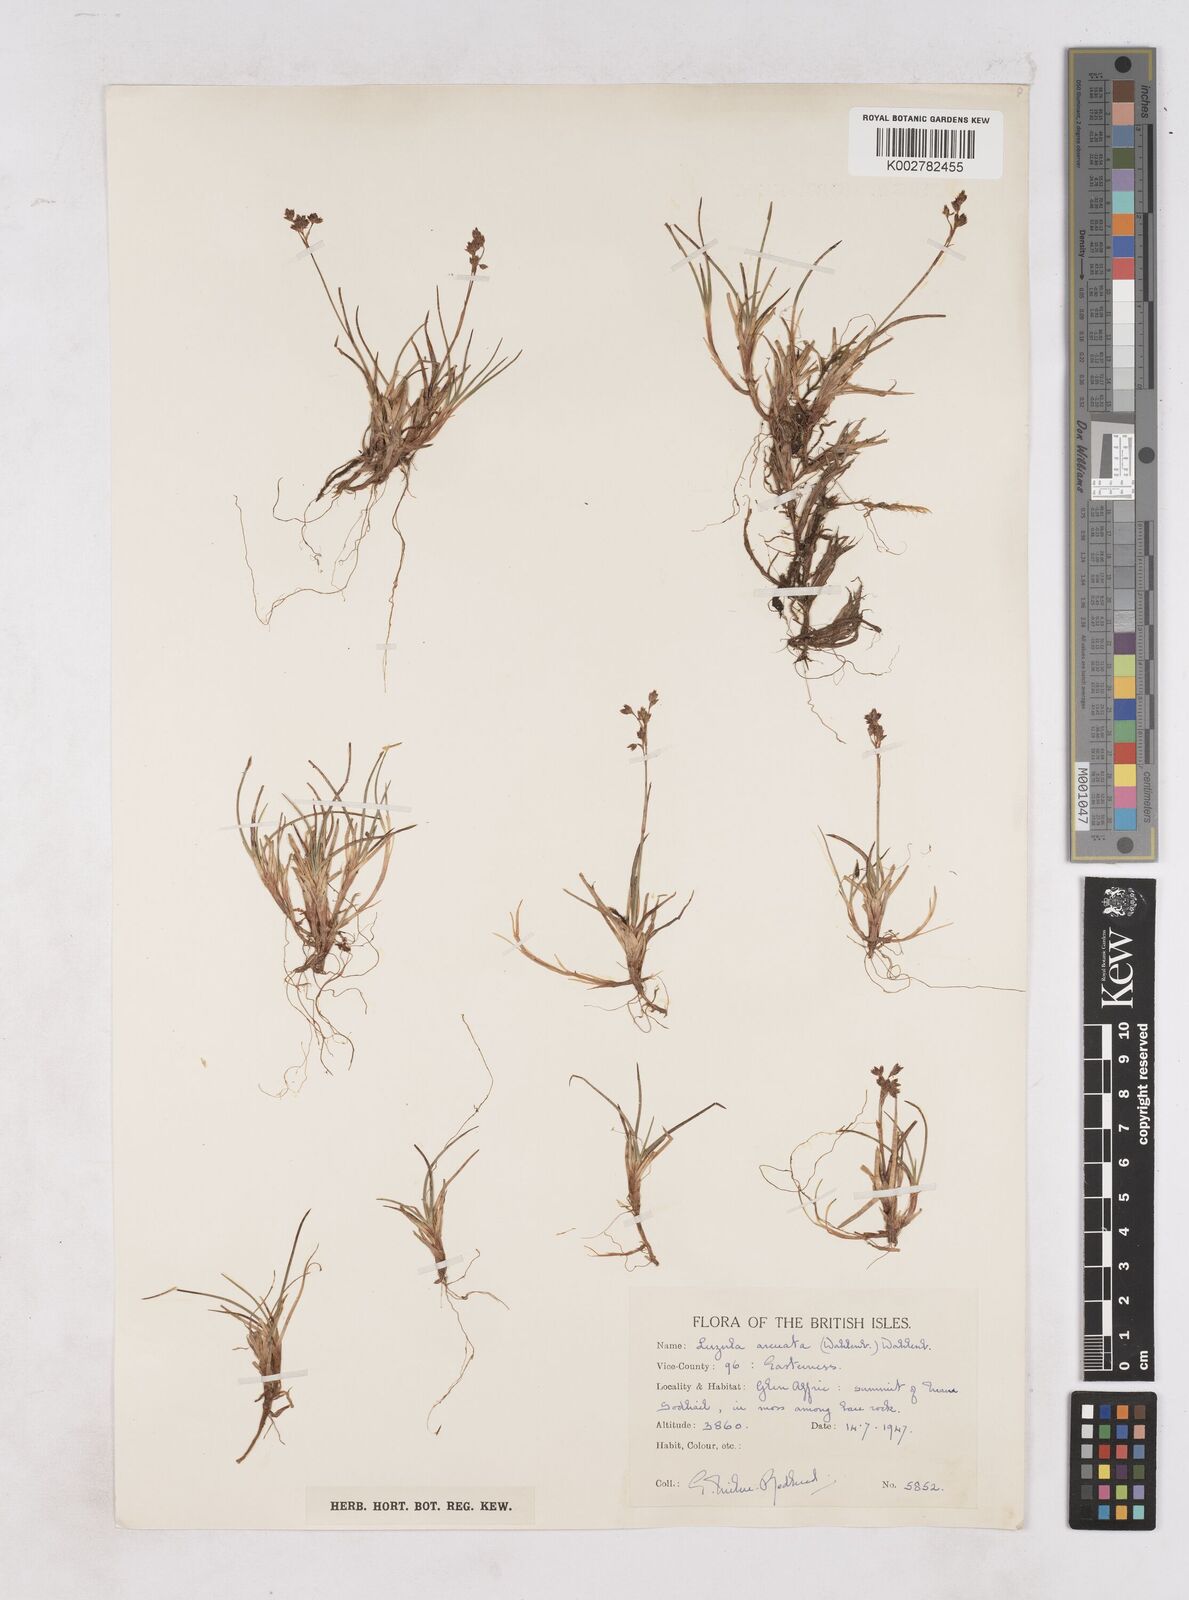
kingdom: Plantae
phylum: Tracheophyta
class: Liliopsida
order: Poales
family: Juncaceae
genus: Luzula
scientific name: Luzula arcuata
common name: Curved wood-rush
